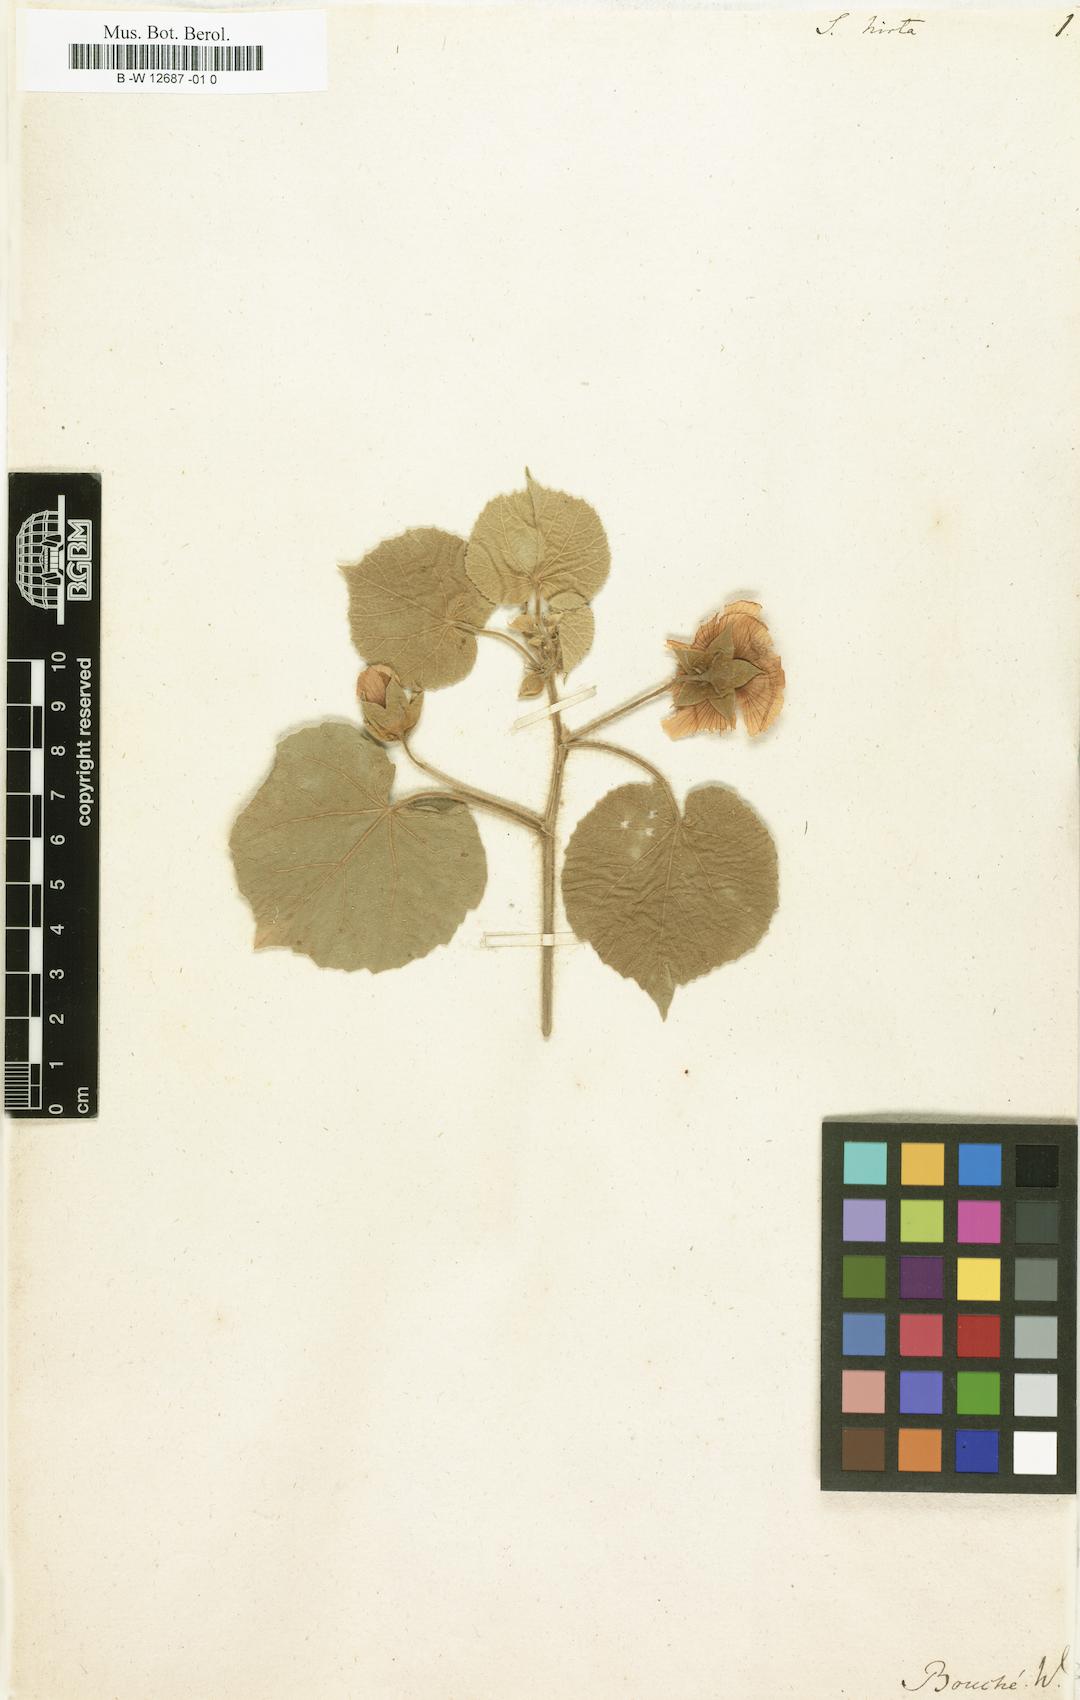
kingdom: Plantae
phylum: Tracheophyta
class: Magnoliopsida
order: Malvales
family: Malvaceae
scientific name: Malvaceae
